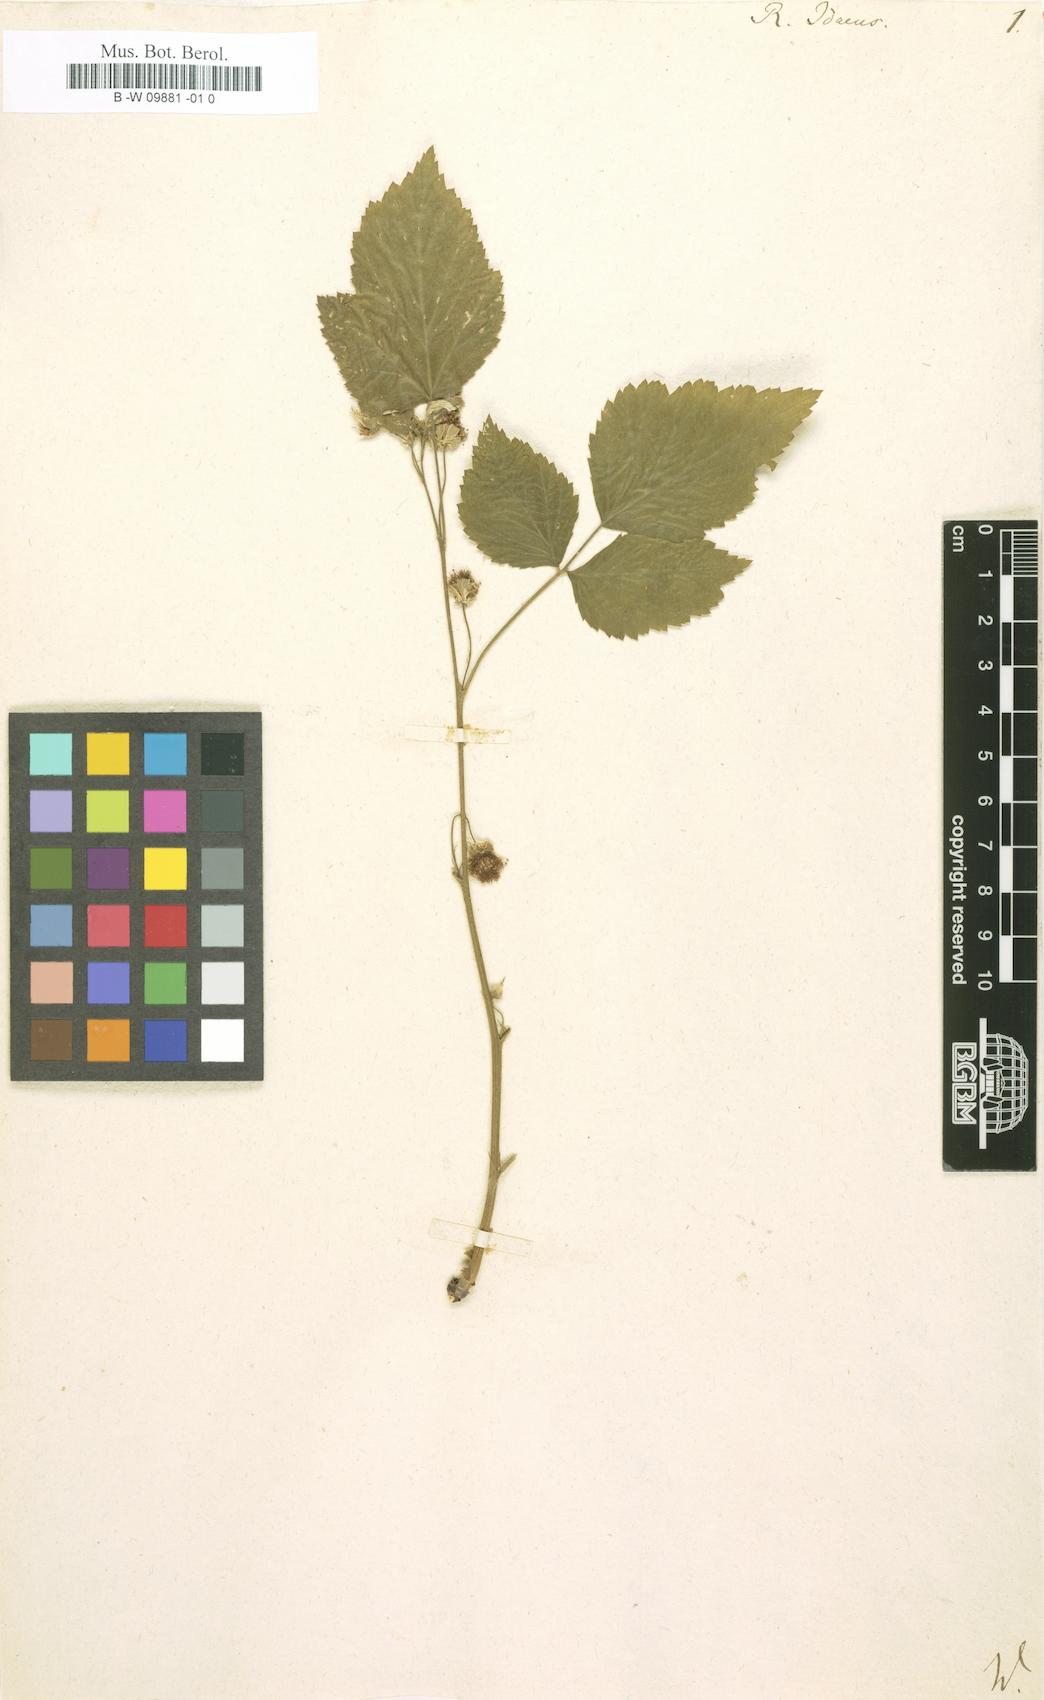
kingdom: Plantae
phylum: Tracheophyta
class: Magnoliopsida
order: Rosales
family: Rosaceae
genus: Rubus
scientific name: Rubus idaeus
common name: Raspberry
